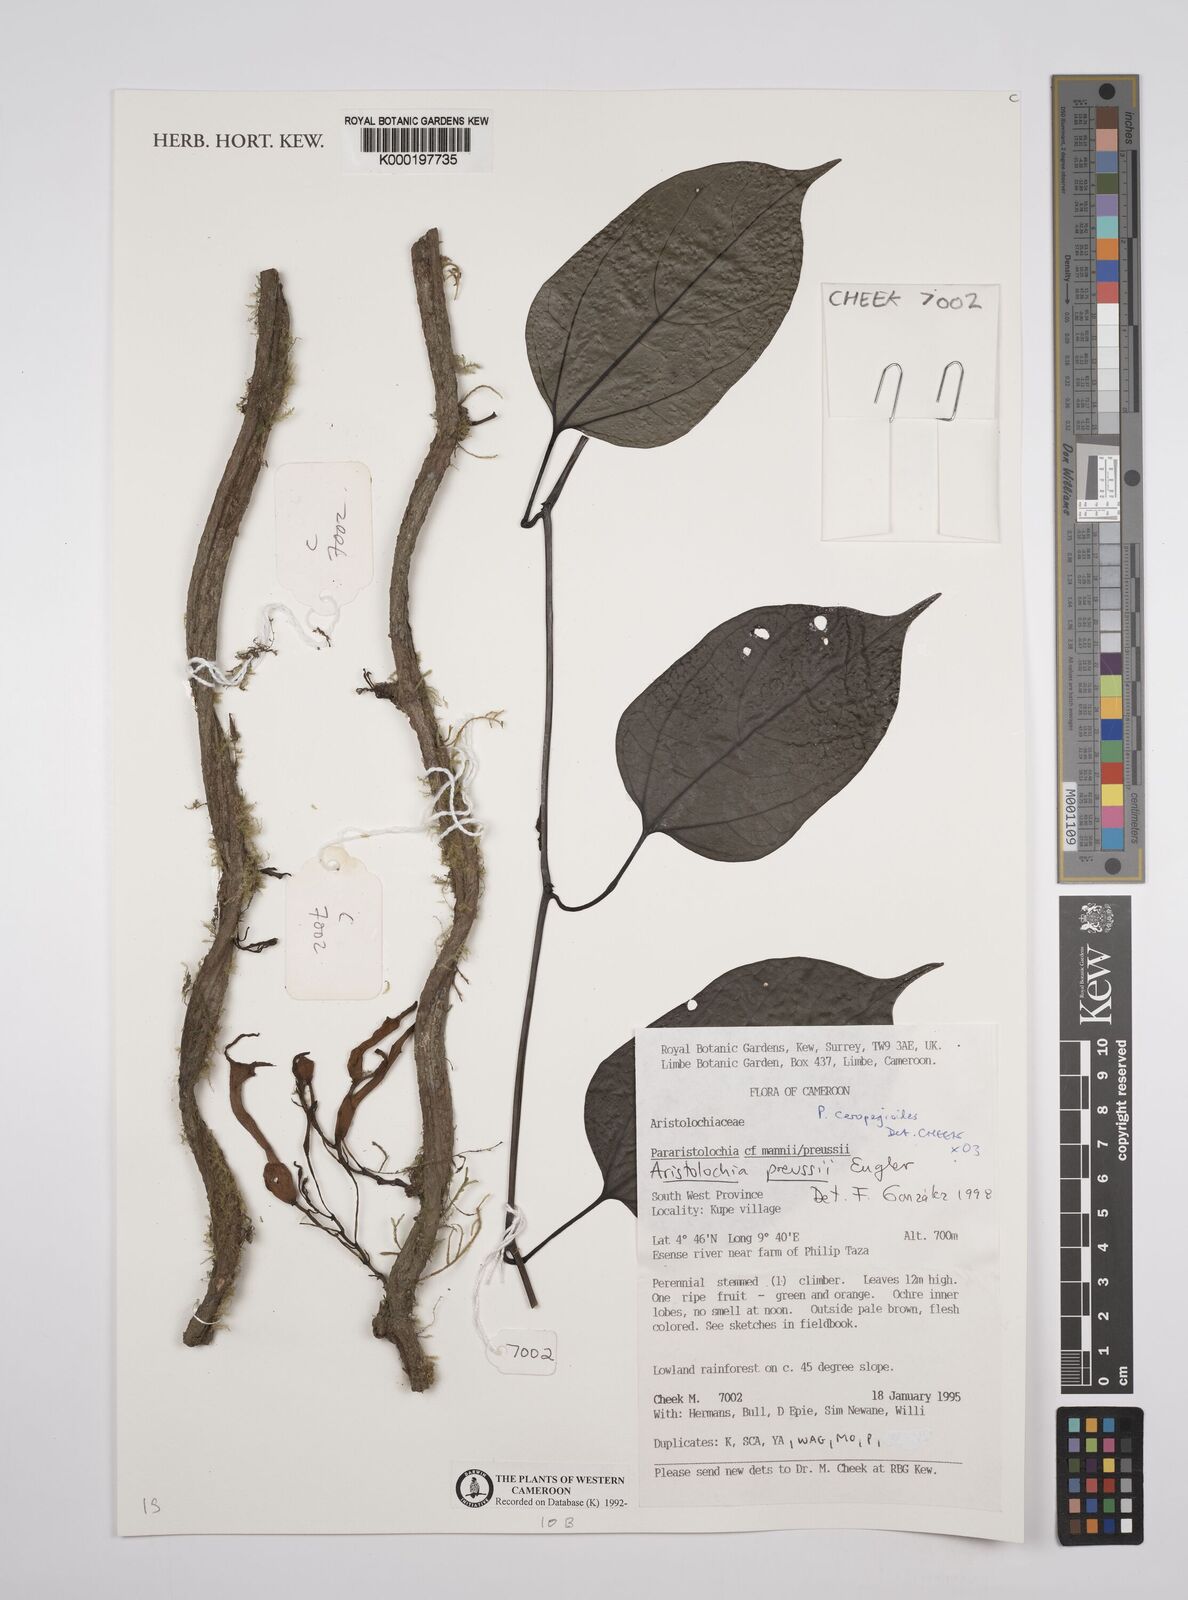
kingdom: Plantae
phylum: Tracheophyta
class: Magnoliopsida
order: Piperales
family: Aristolochiaceae
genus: Aristolochia
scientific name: Aristolochia ceropegioides
